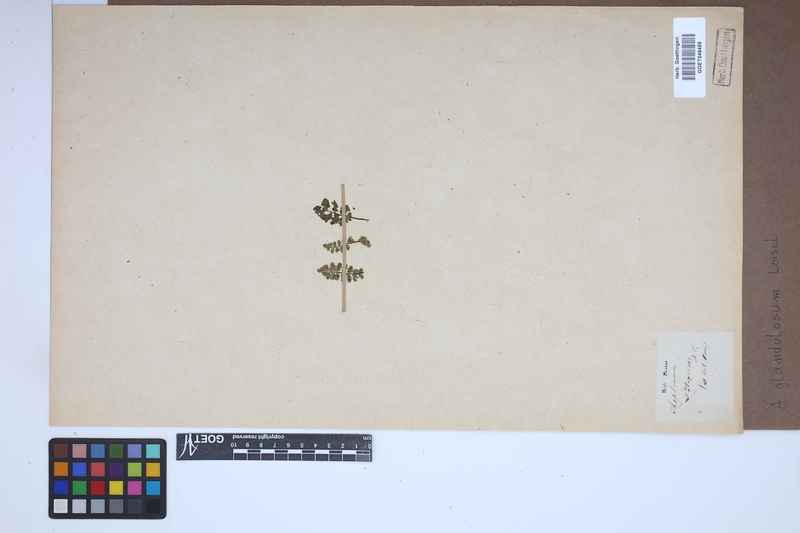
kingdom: Plantae
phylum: Tracheophyta
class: Polypodiopsida
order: Polypodiales
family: Aspleniaceae
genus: Asplenium
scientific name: Asplenium petrarchae
